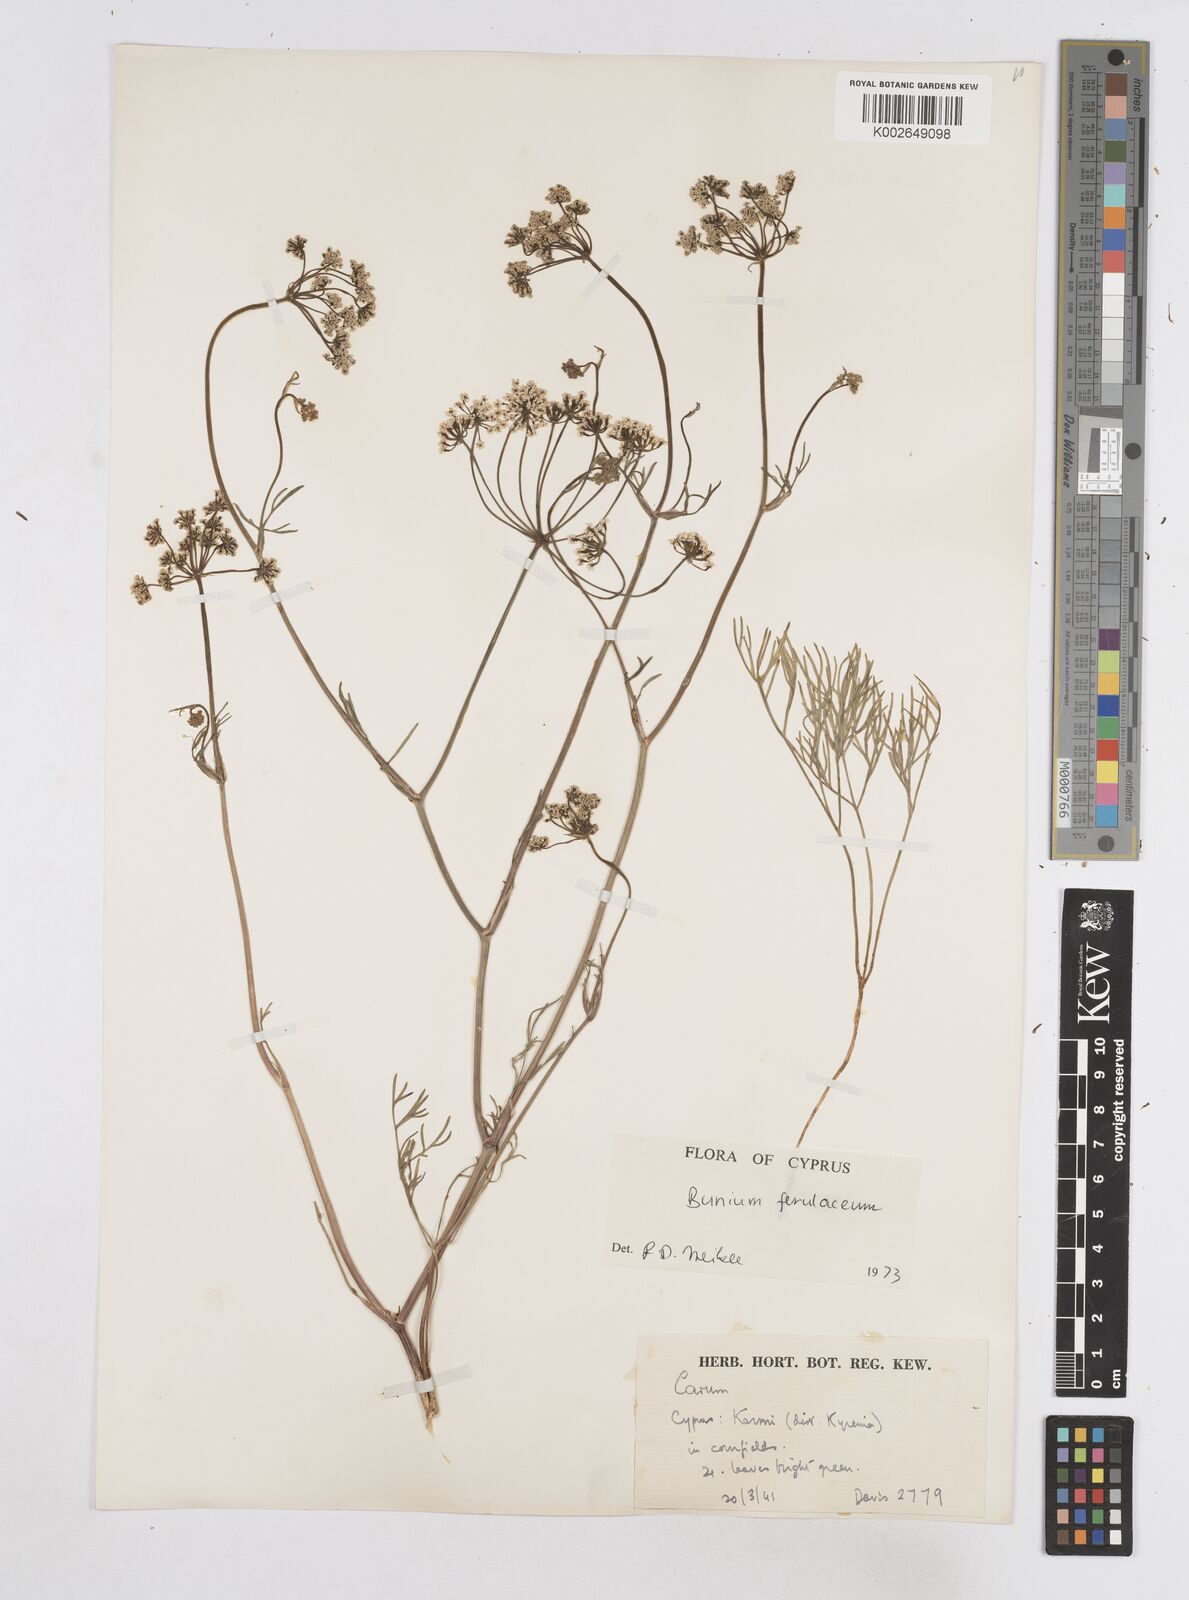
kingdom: Plantae
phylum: Tracheophyta
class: Magnoliopsida
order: Apiales
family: Apiaceae
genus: Bunium
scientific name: Bunium ferulaceum
